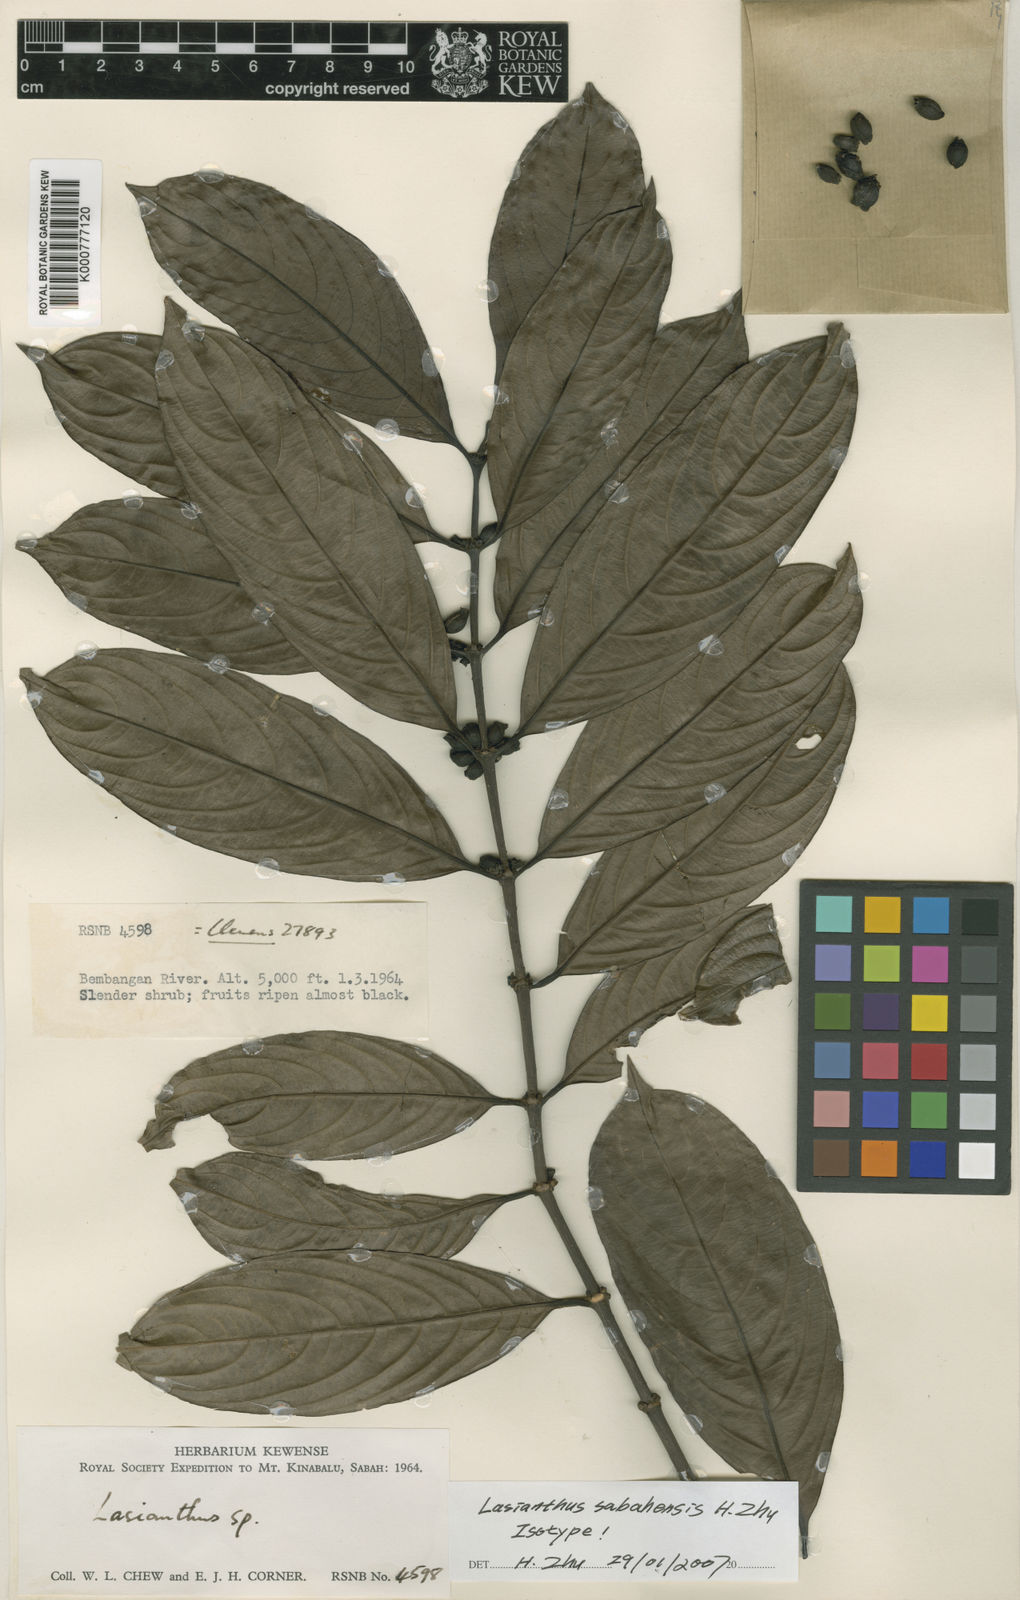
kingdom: Plantae
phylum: Tracheophyta
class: Magnoliopsida
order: Gentianales
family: Rubiaceae
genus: Lasianthus
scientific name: Lasianthus sabahensis
